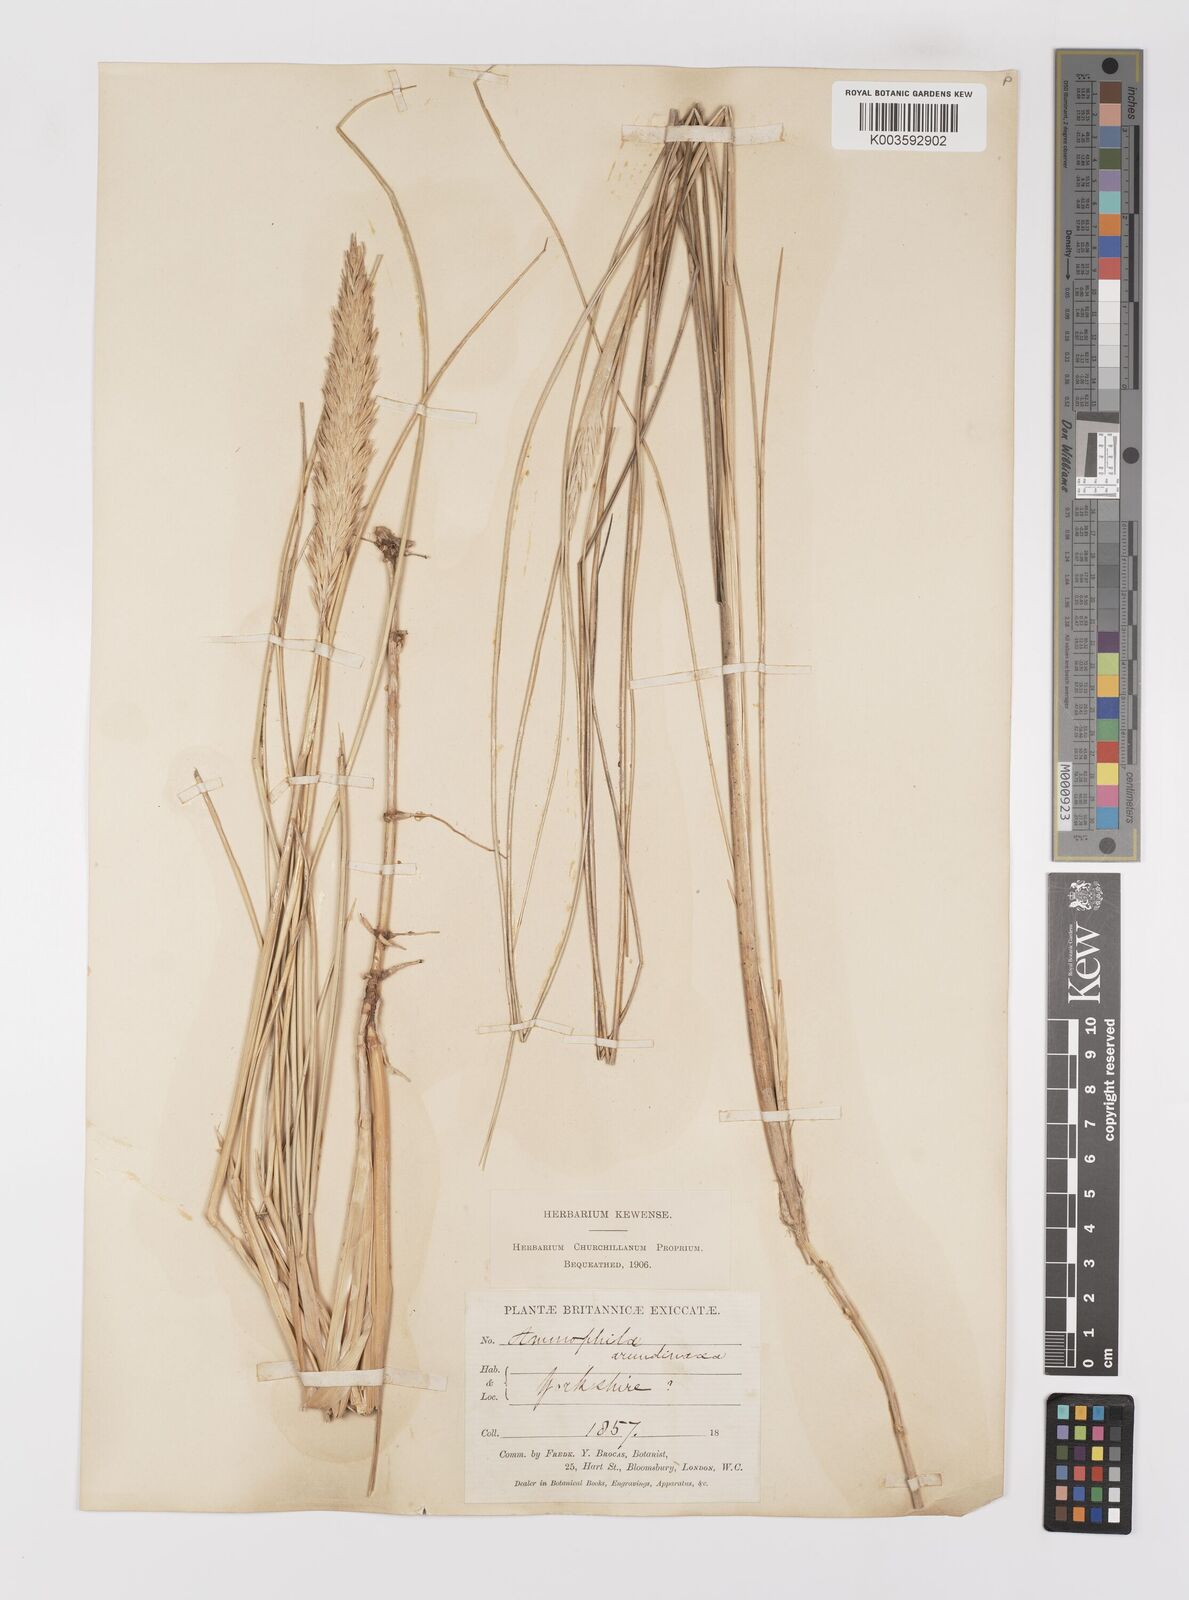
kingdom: Plantae
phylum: Tracheophyta
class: Liliopsida
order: Poales
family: Poaceae
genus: Calamagrostis
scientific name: Calamagrostis arenaria
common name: European beachgrass
